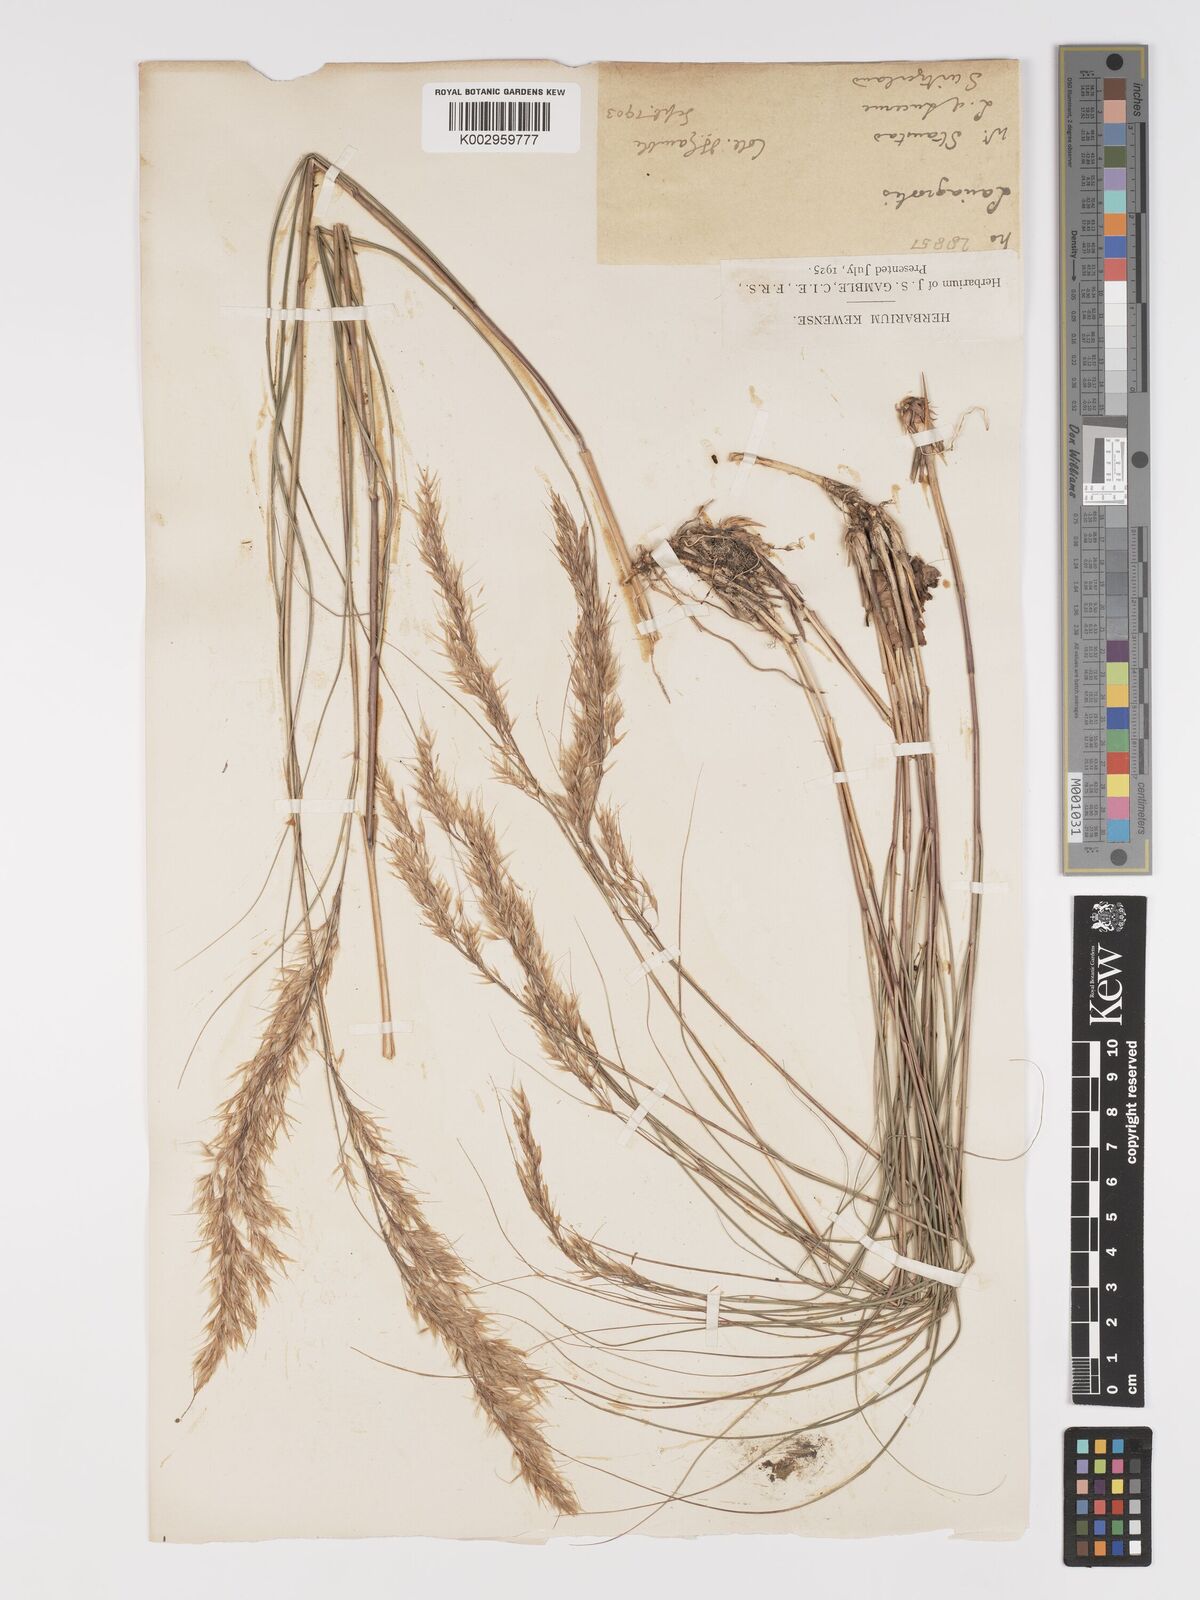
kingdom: Plantae
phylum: Tracheophyta
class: Liliopsida
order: Poales
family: Poaceae
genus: Achnatherum
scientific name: Achnatherum calamagrostis
